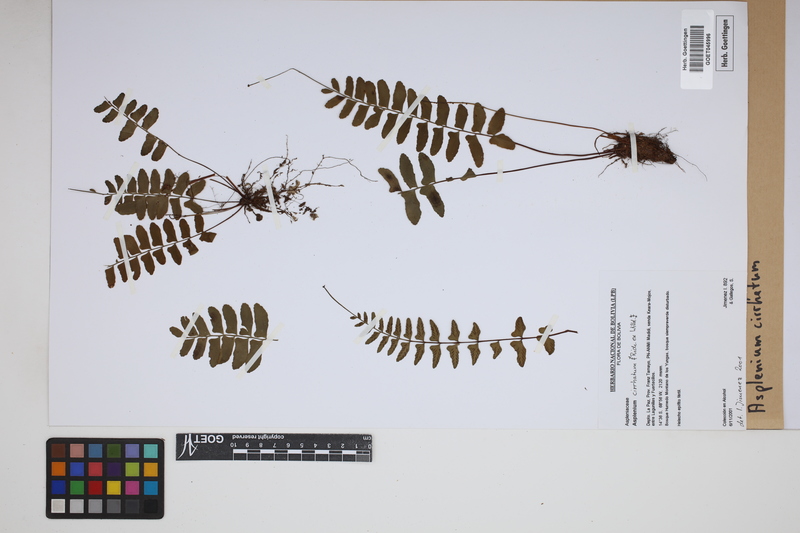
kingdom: Plantae
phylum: Tracheophyta
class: Polypodiopsida
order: Polypodiales
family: Aspleniaceae
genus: Asplenium
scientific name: Asplenium cirrhatum
